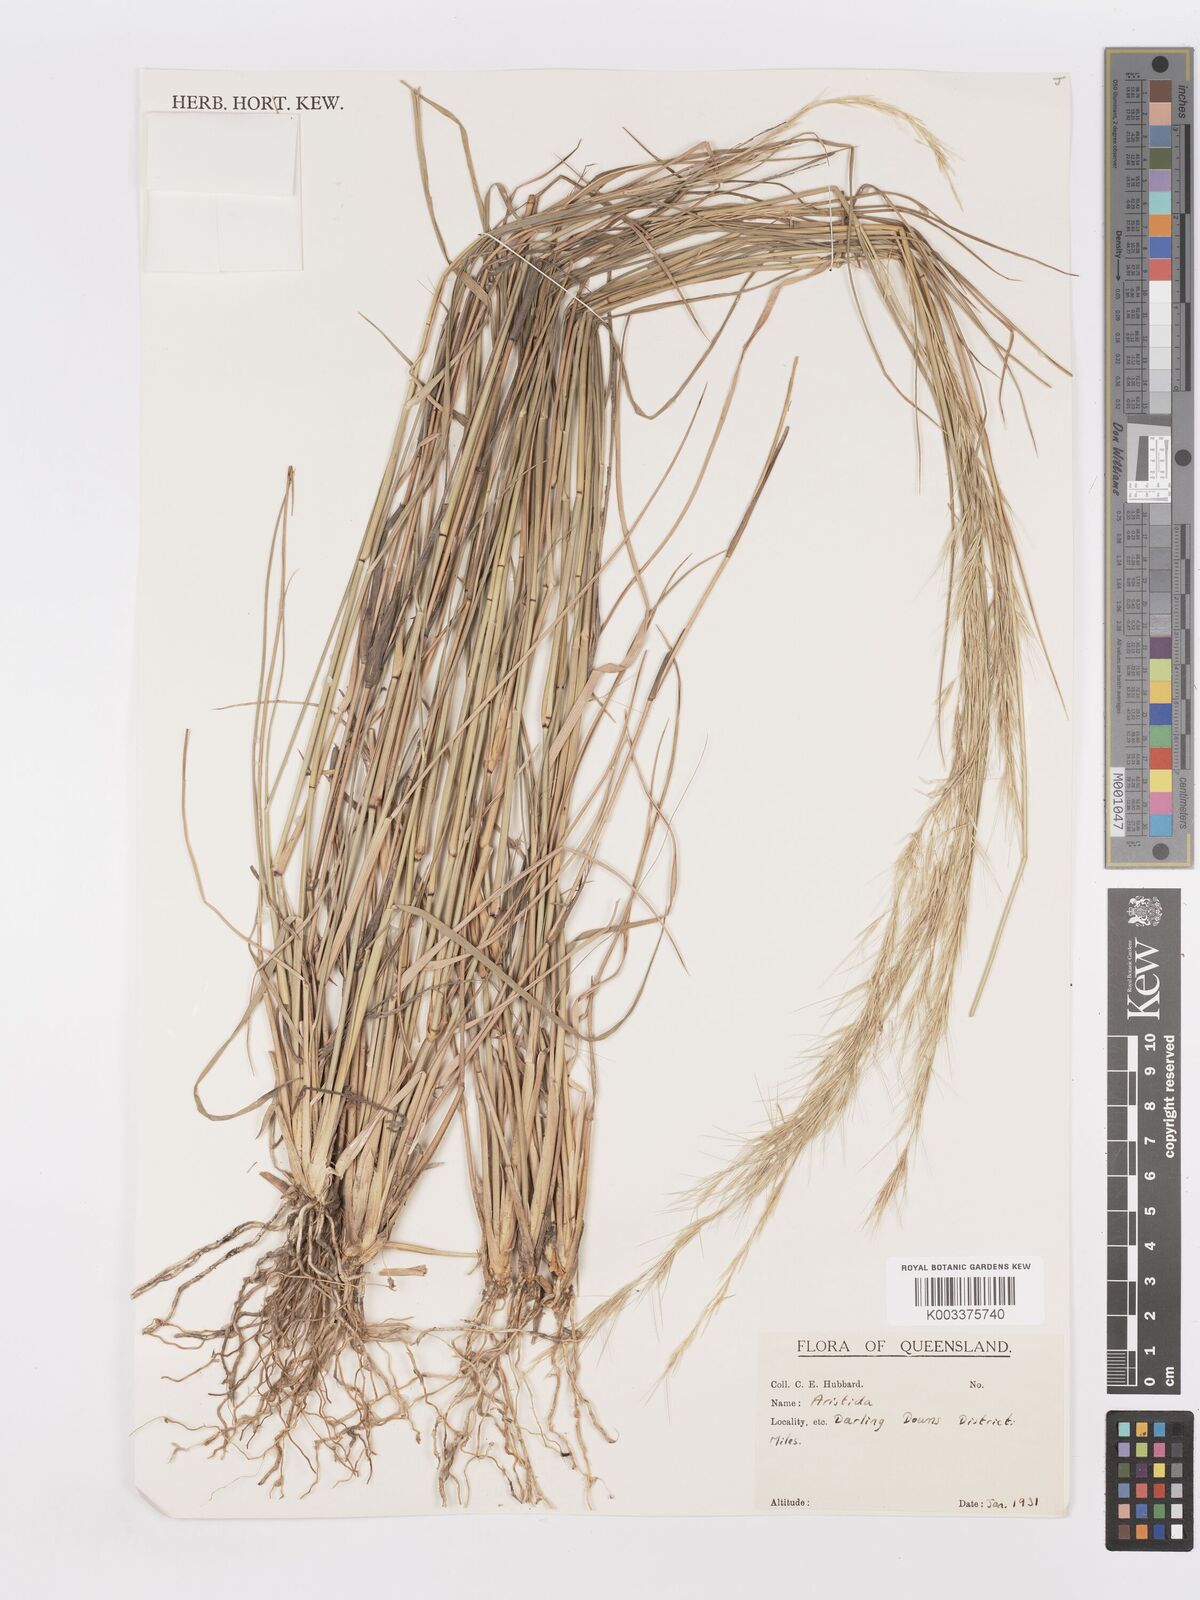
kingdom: Plantae
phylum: Tracheophyta
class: Liliopsida
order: Poales
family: Poaceae
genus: Aristida
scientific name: Aristida
